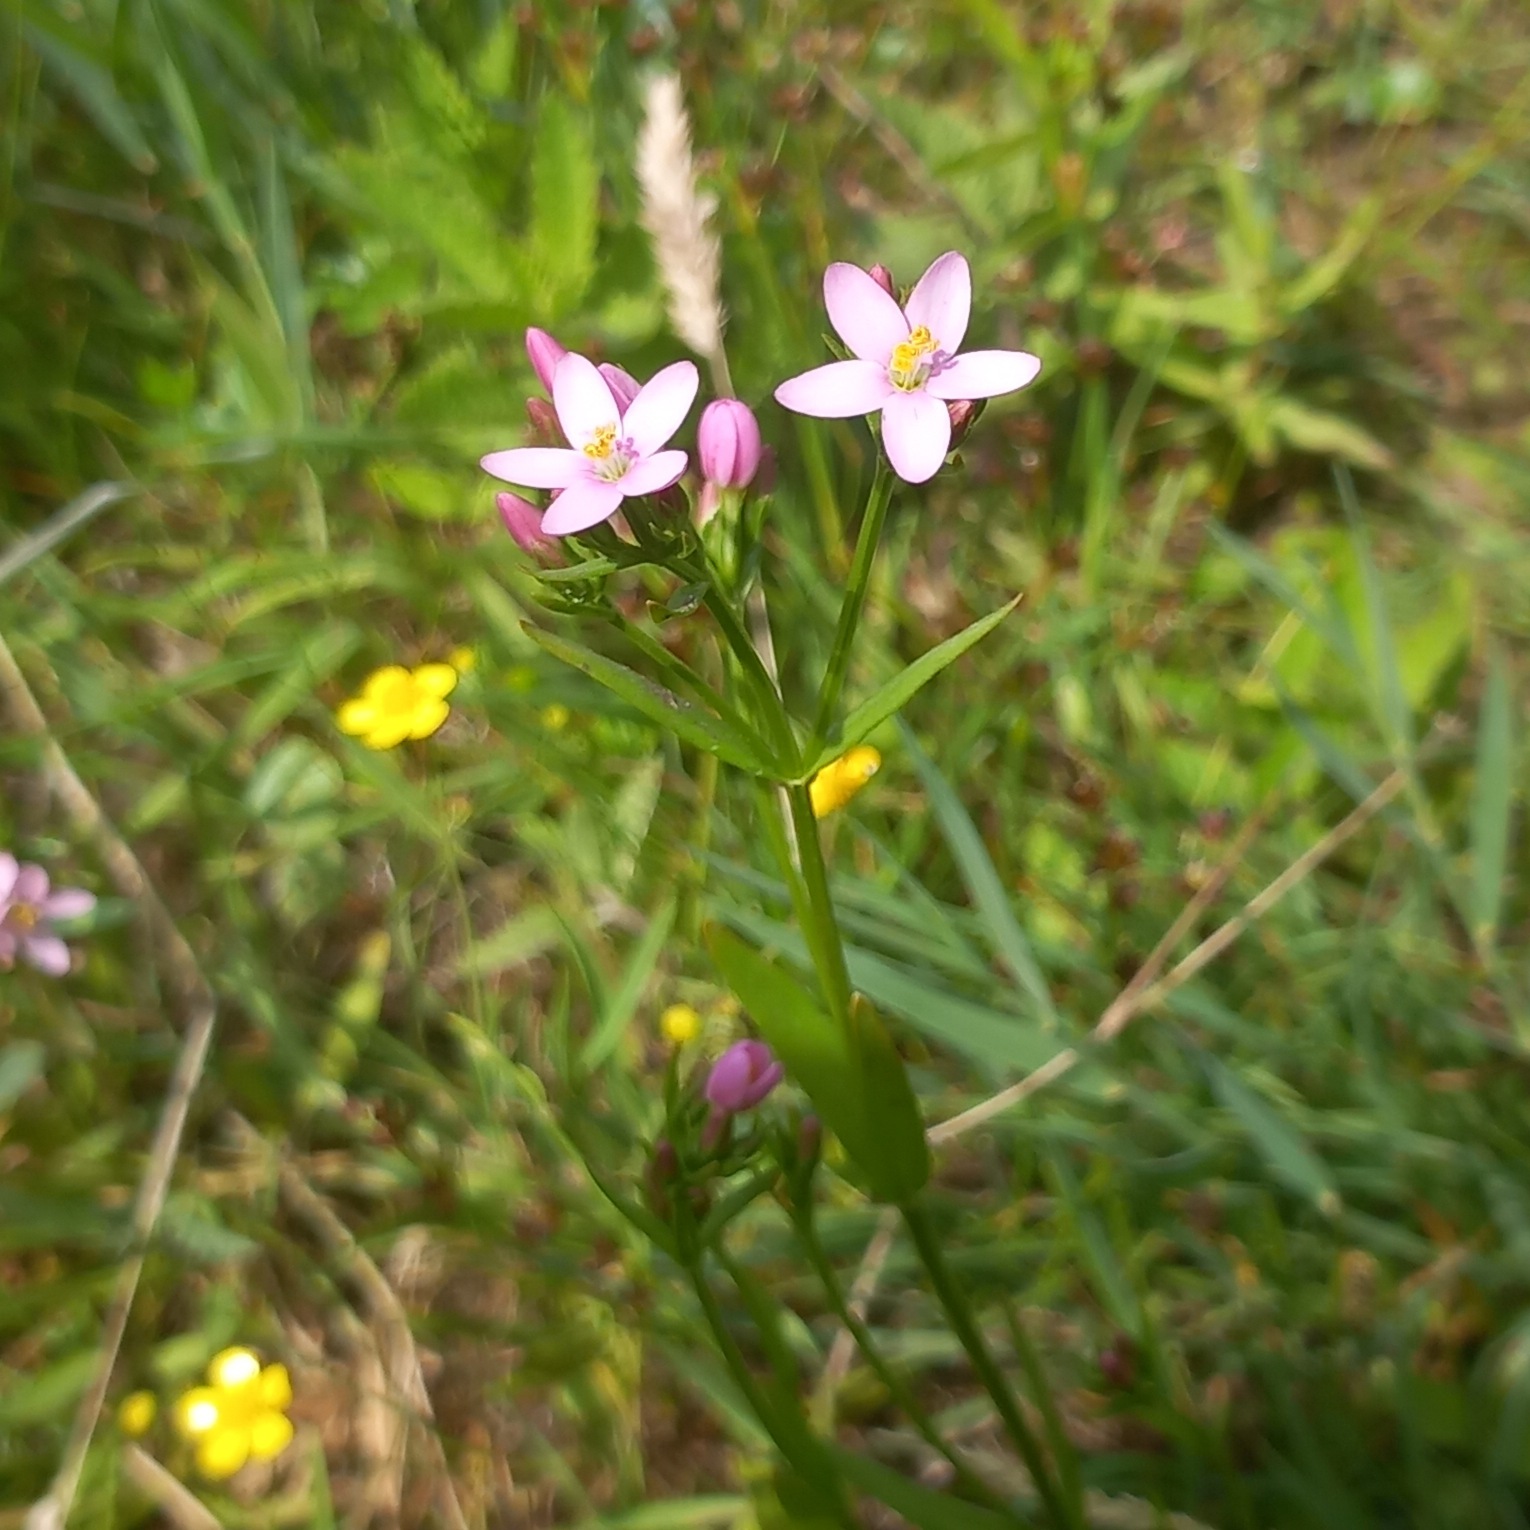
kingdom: Plantae
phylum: Tracheophyta
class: Magnoliopsida
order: Gentianales
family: Gentianaceae
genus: Centaurium
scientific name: Centaurium littorale
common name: Strand-tusindgylden
